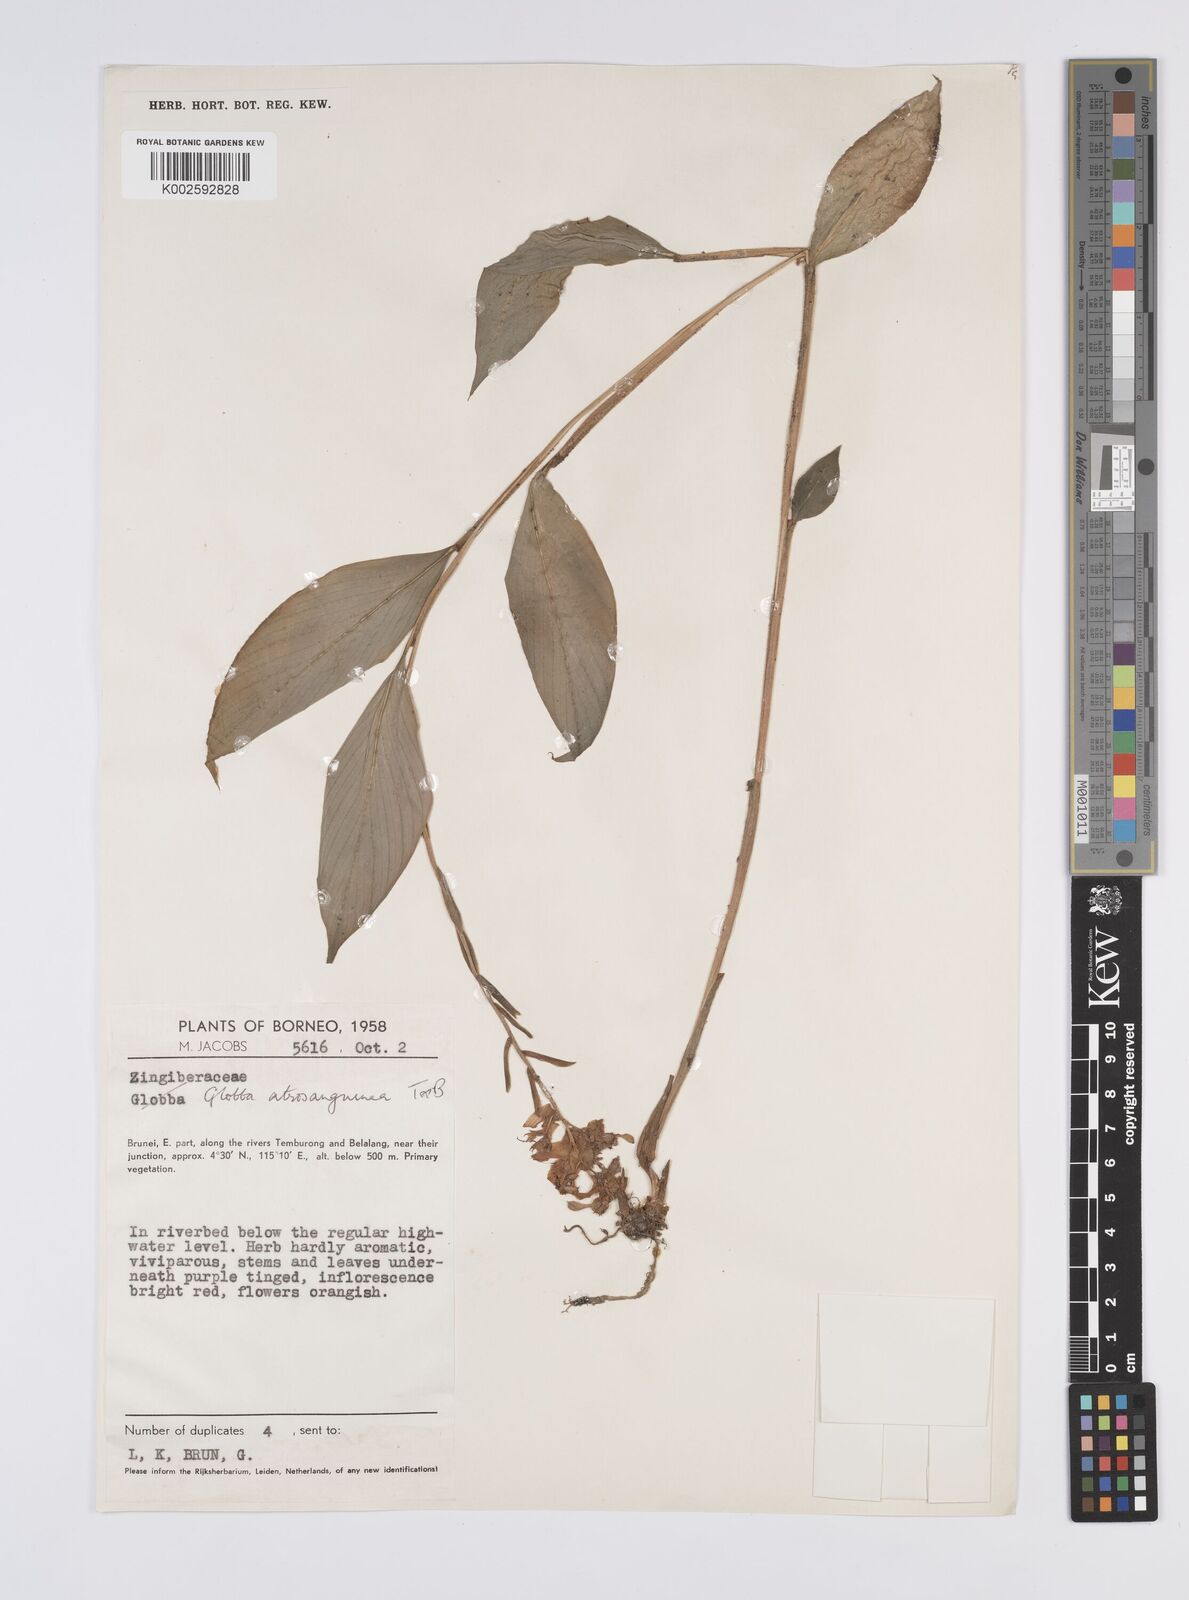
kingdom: Plantae
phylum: Tracheophyta
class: Liliopsida
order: Zingiberales
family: Zingiberaceae
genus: Globba
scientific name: Globba atrosanguinea
